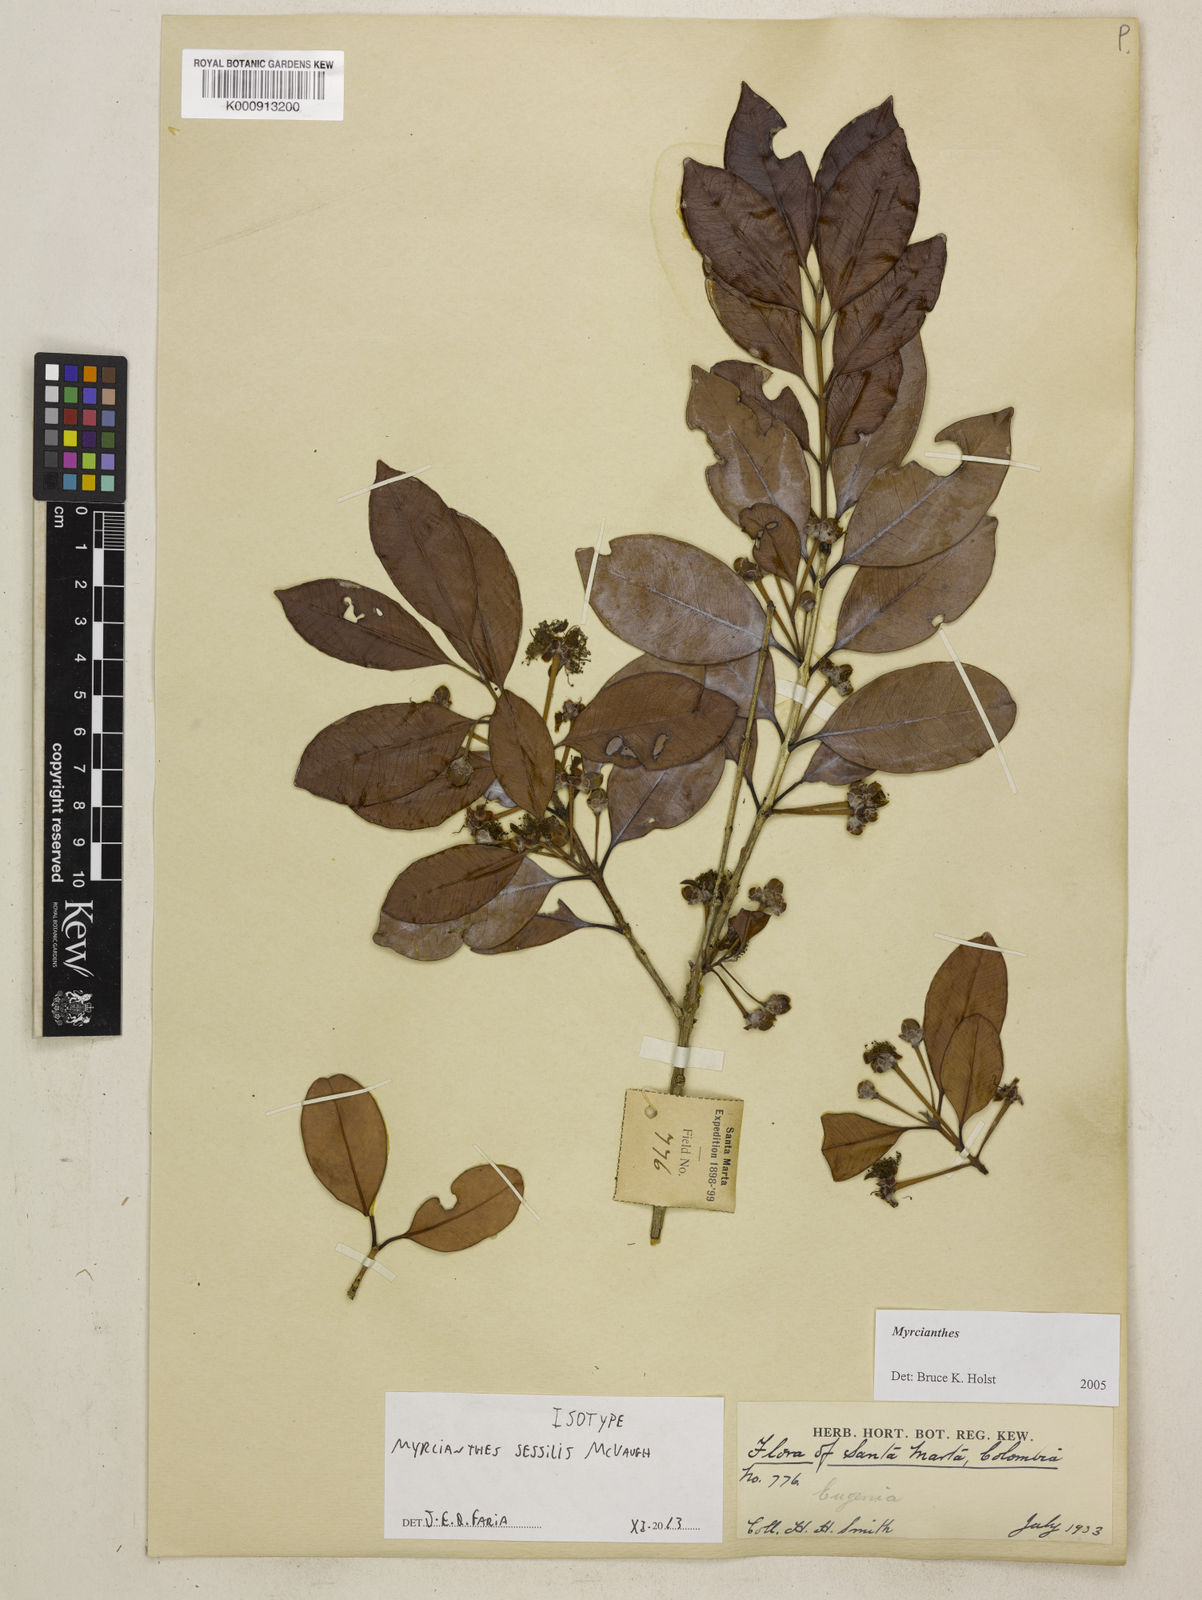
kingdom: Plantae
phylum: Tracheophyta
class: Magnoliopsida
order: Myrtales
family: Myrtaceae
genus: Myrcianthes
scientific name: Myrcianthes sessilis
